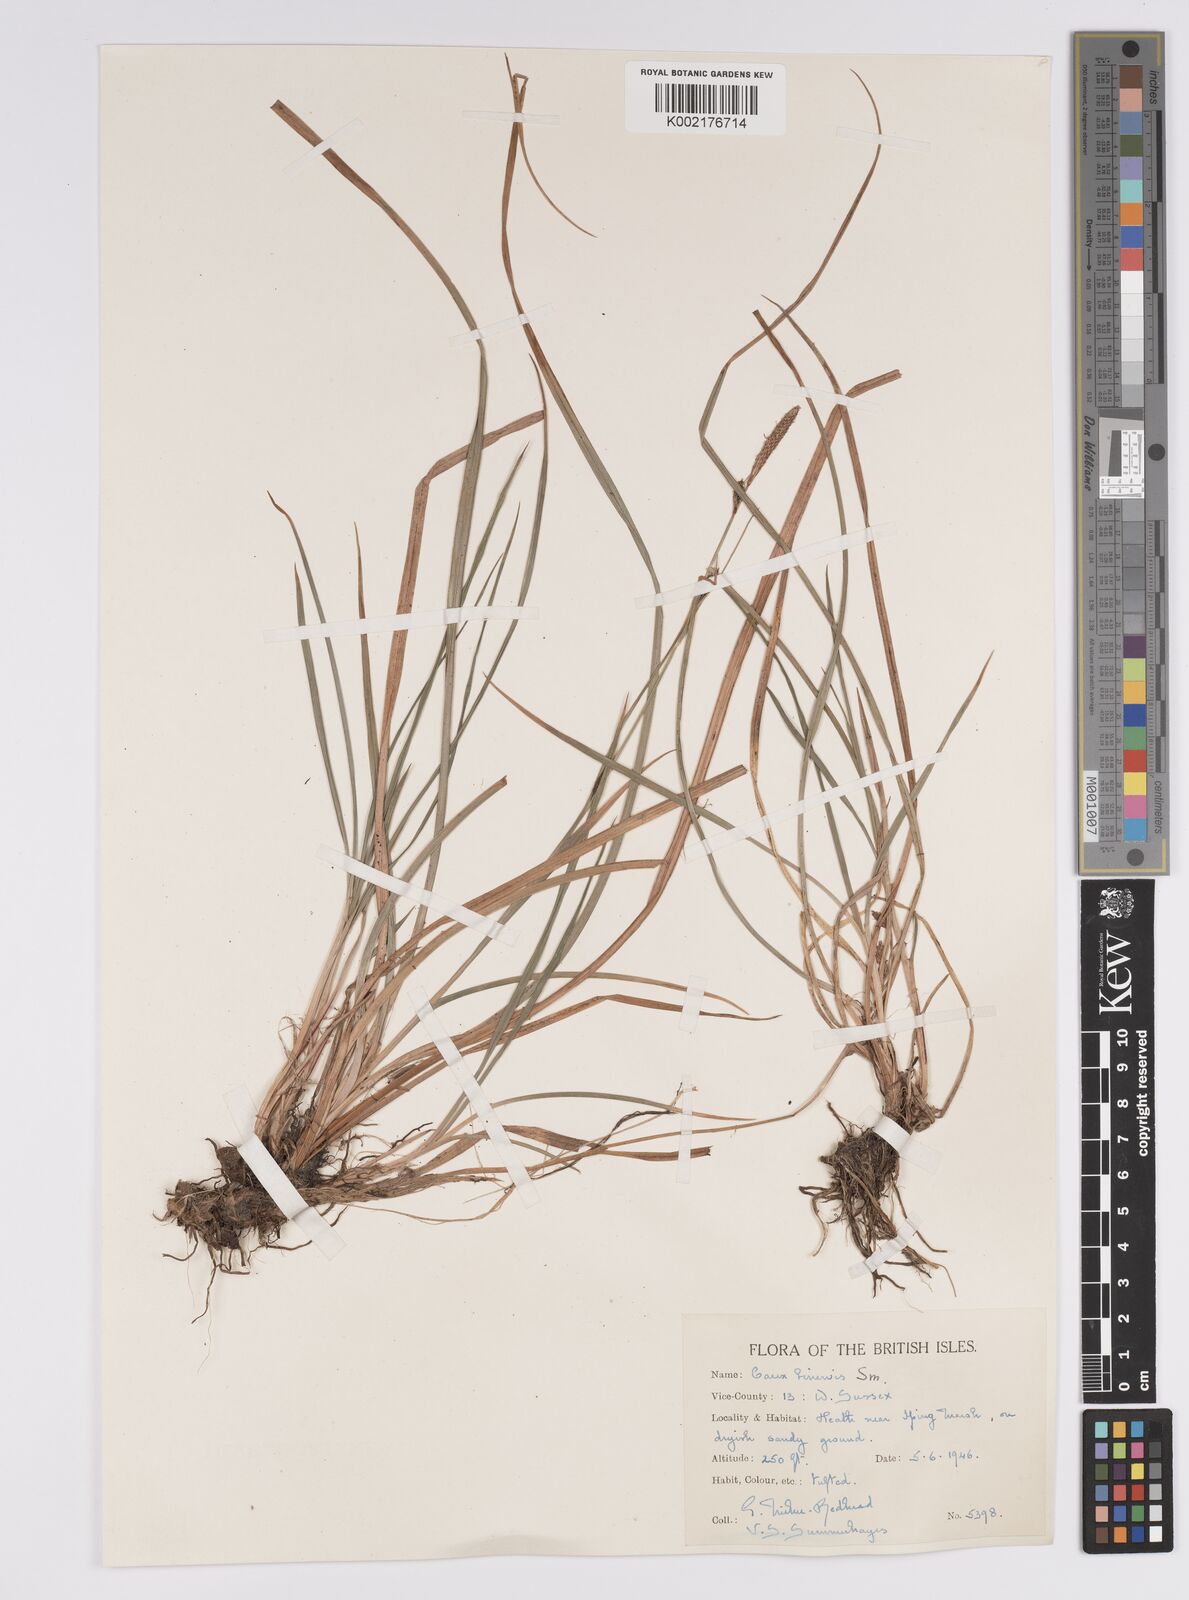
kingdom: Plantae
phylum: Tracheophyta
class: Liliopsida
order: Poales
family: Cyperaceae
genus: Carex
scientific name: Carex binervis
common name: Green-ribbed sedge
